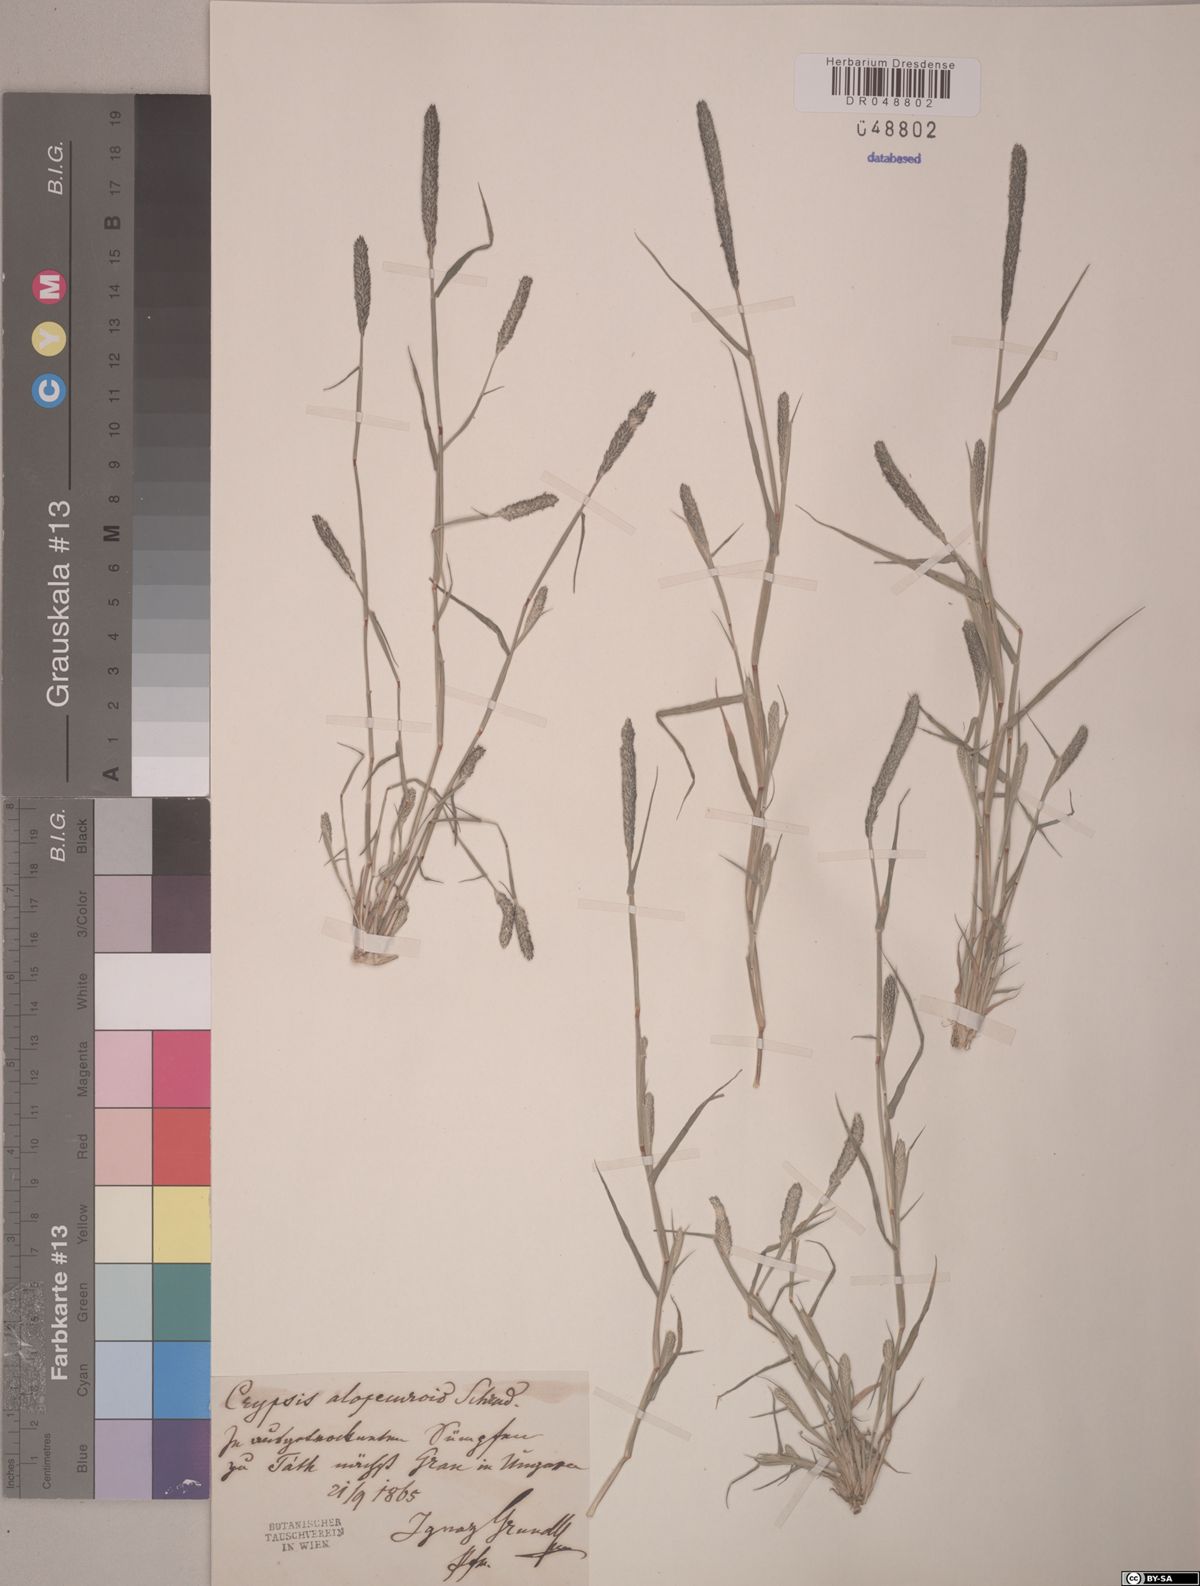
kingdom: Plantae
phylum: Tracheophyta
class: Liliopsida
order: Poales
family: Poaceae
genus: Sporobolus
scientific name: Sporobolus alopecuroides
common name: Foxtail pricklegrass
